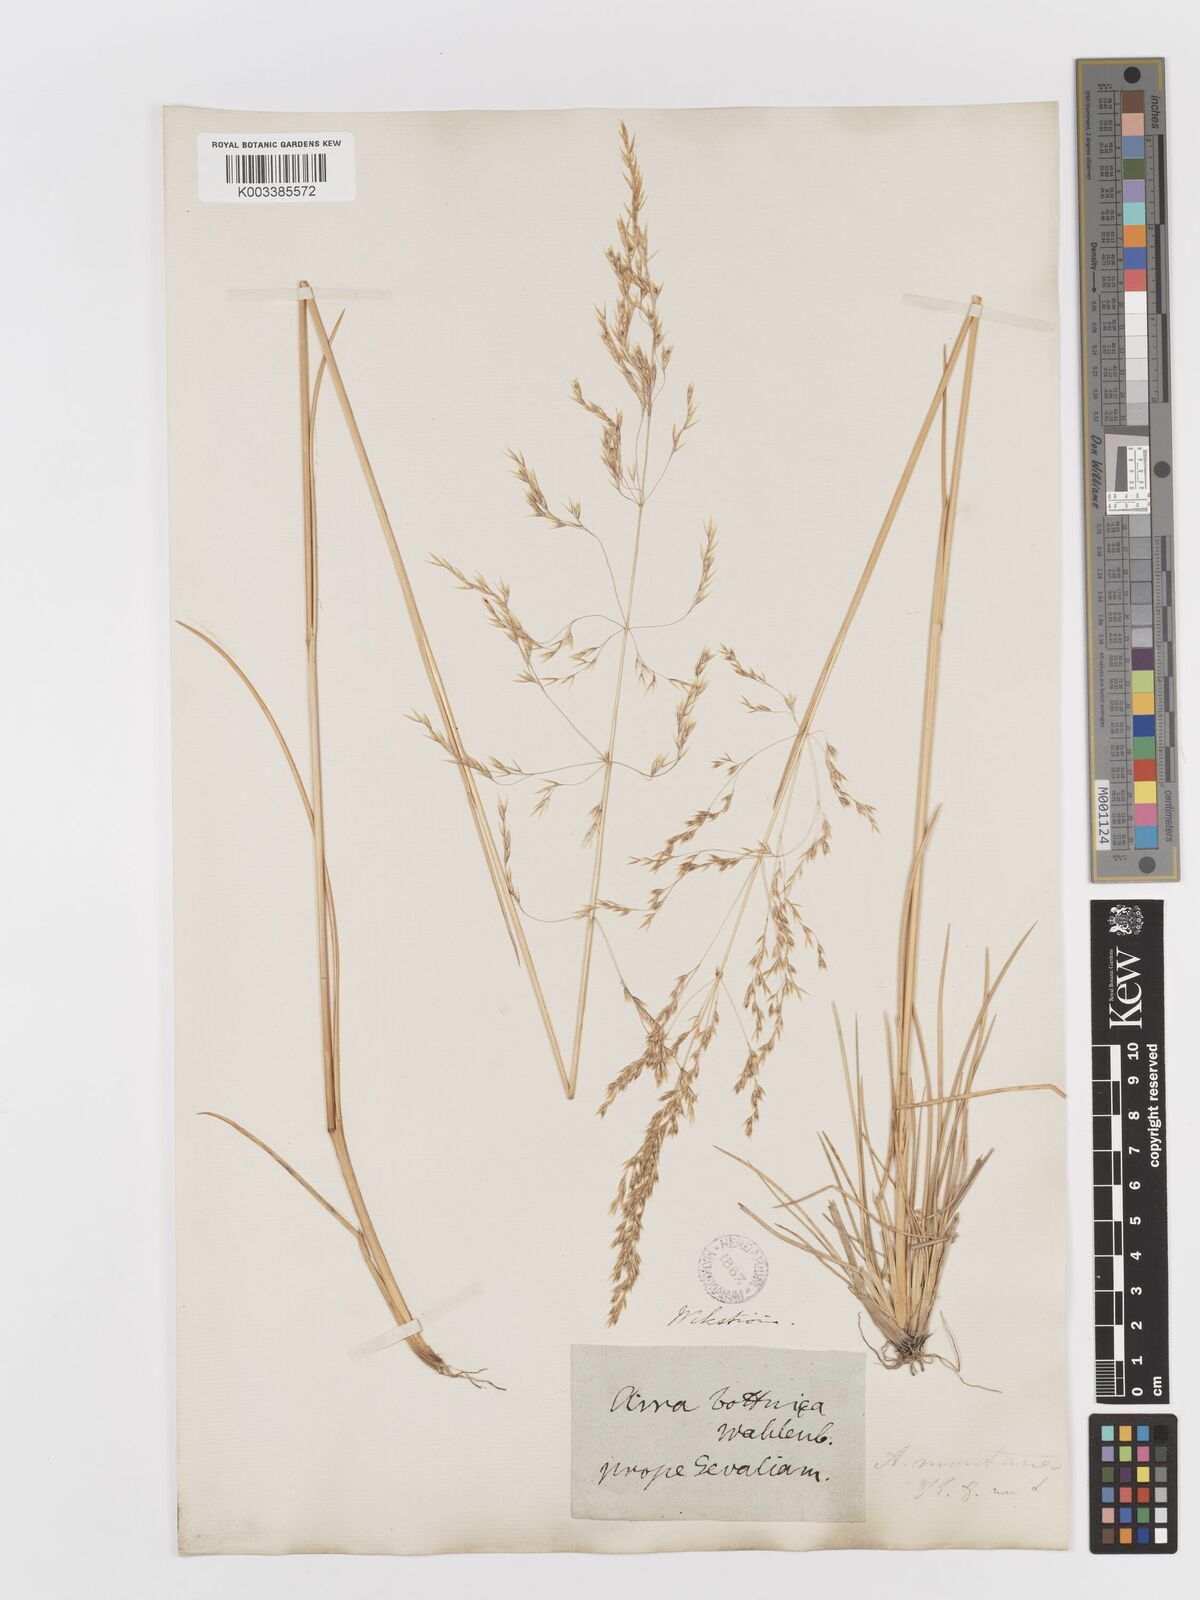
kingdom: Plantae
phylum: Tracheophyta
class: Liliopsida
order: Poales
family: Poaceae
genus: Deschampsia
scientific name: Deschampsia cespitosa
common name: Tufted hair-grass
